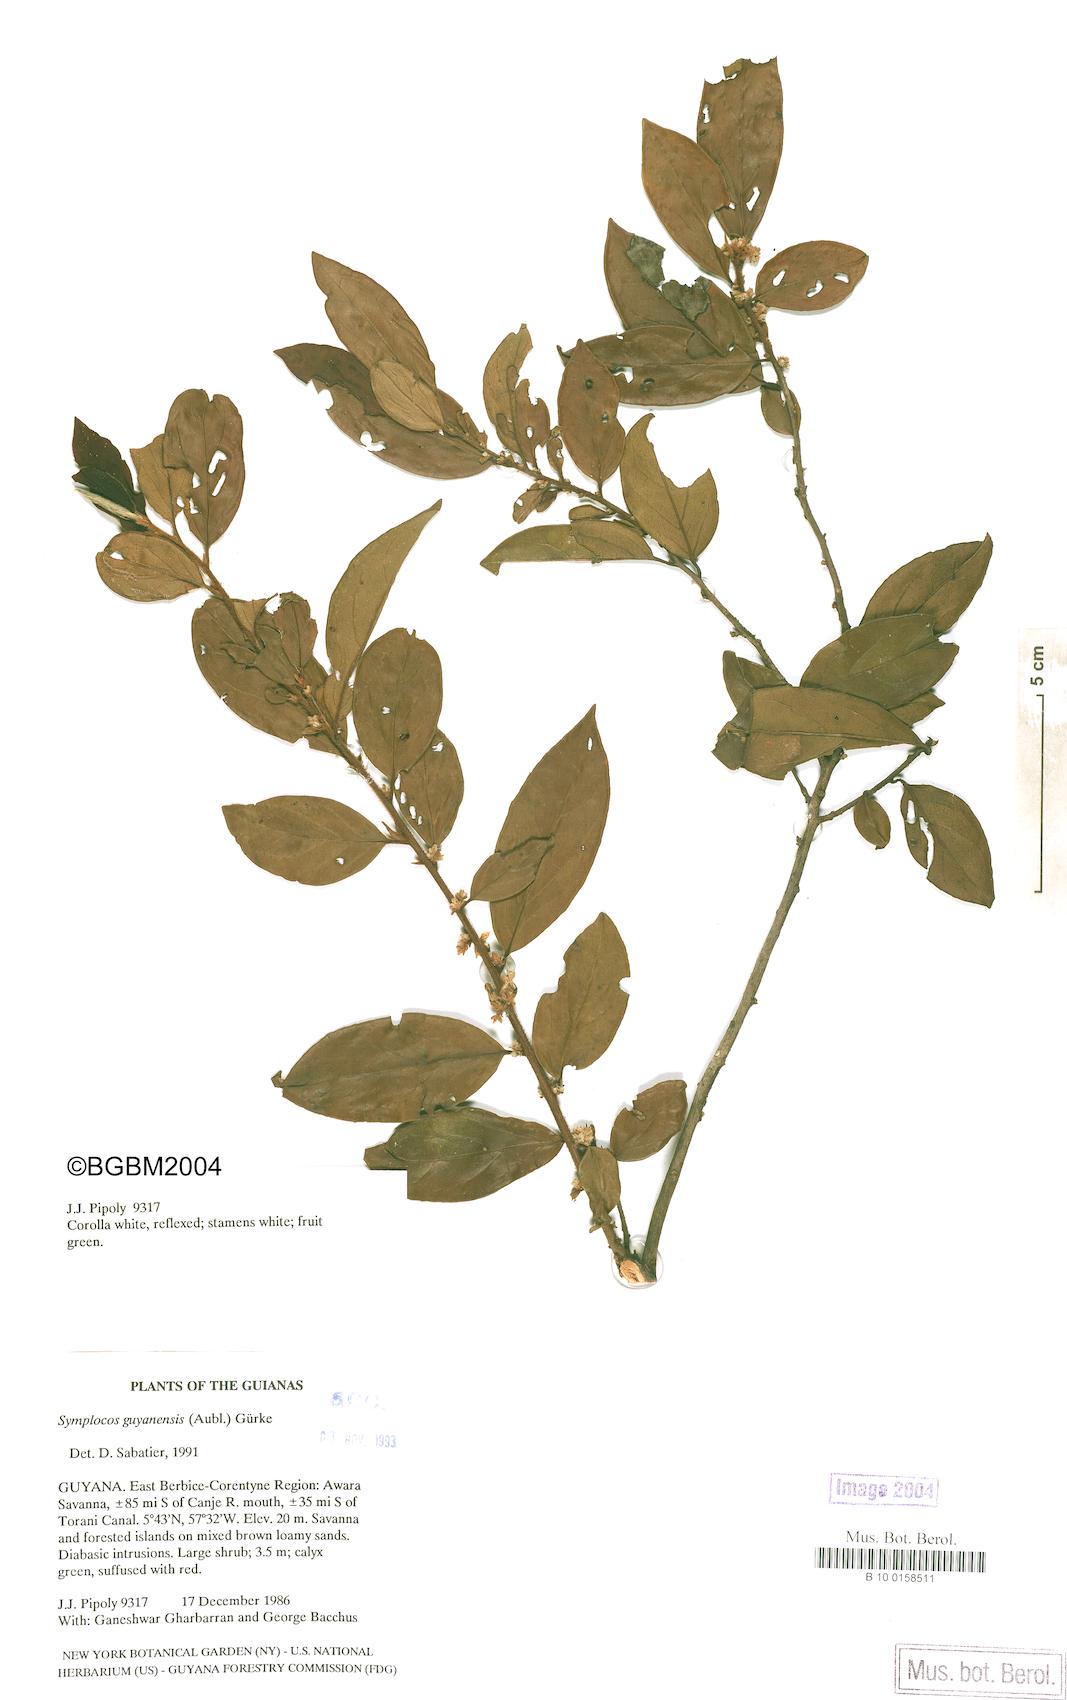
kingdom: Plantae
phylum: Tracheophyta
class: Magnoliopsida
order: Ericales
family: Symplocaceae
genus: Symplocos
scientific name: Symplocos guianensis
